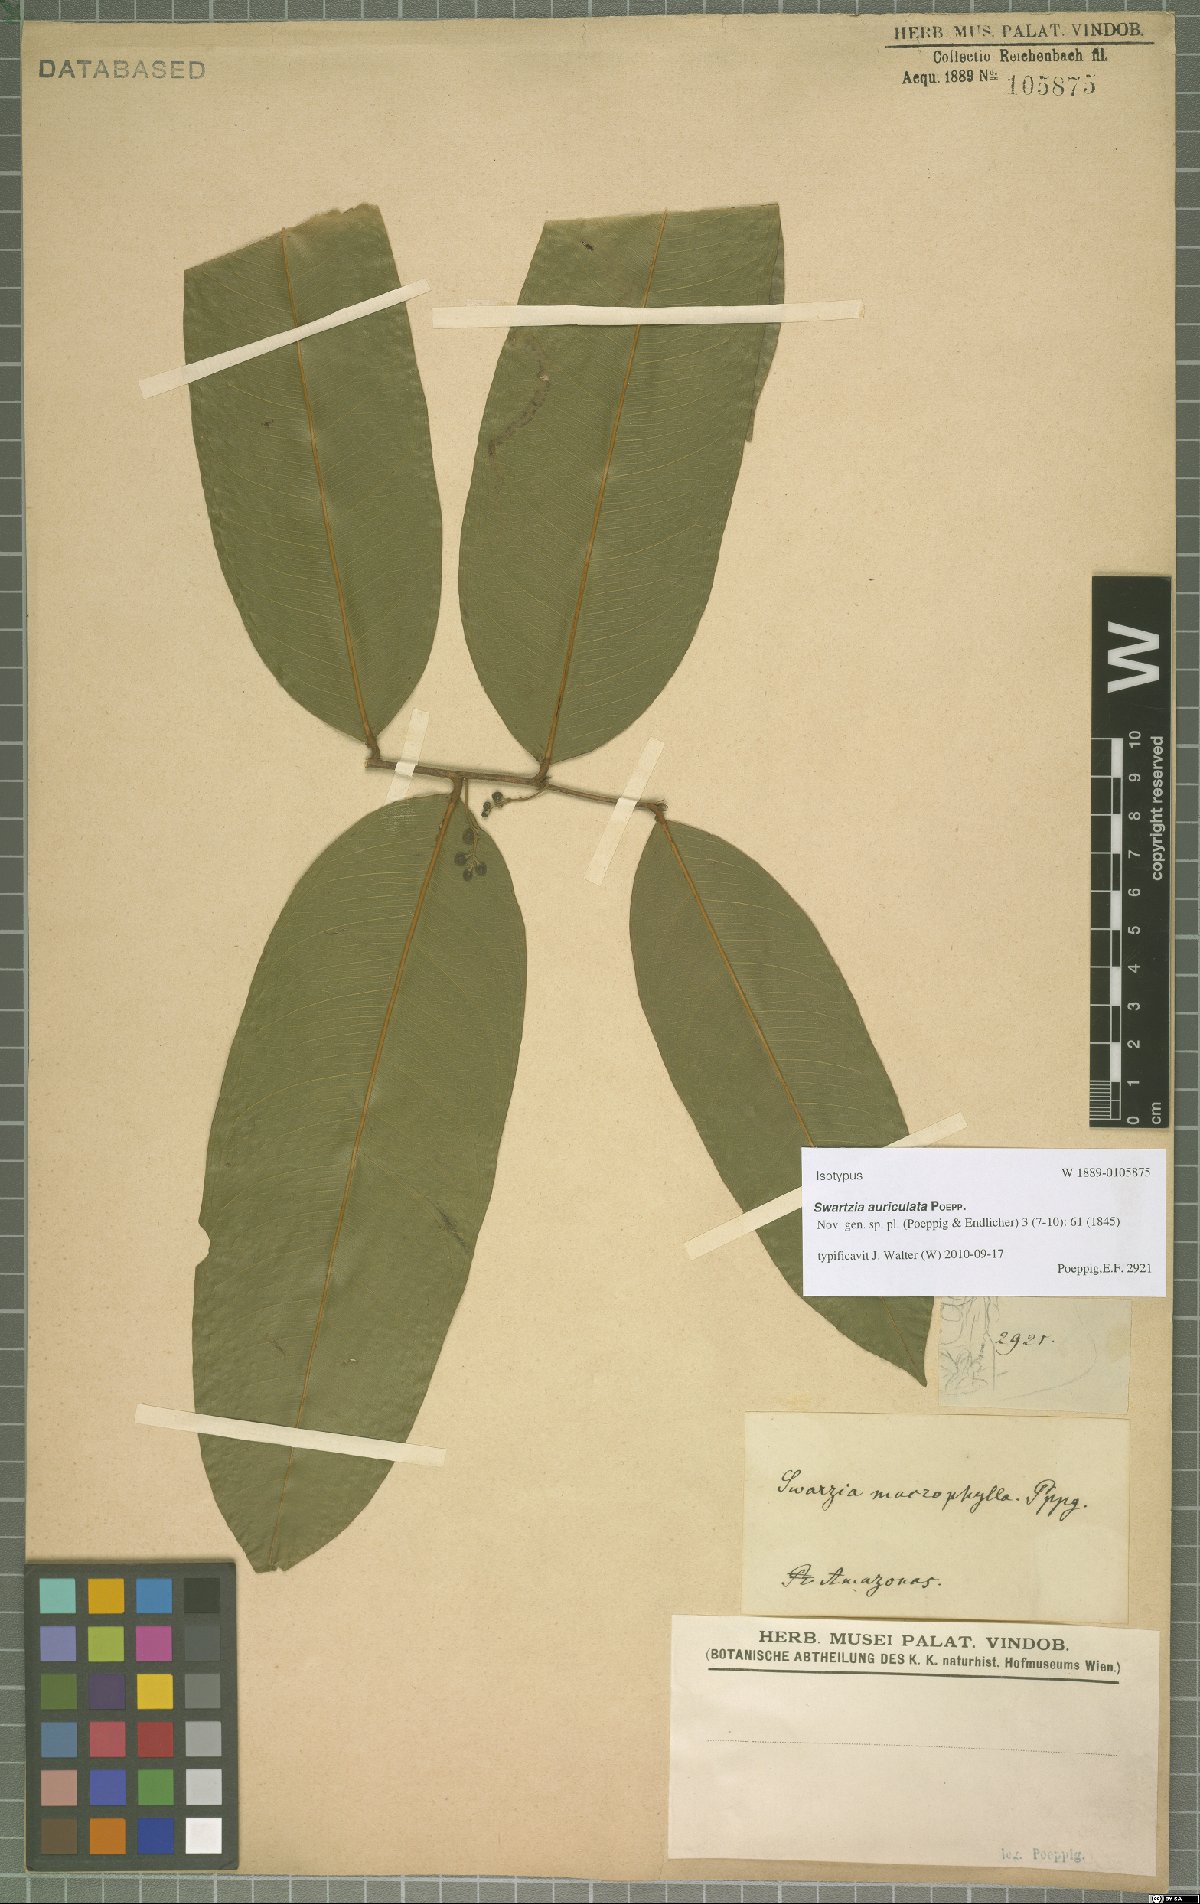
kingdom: Plantae
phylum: Tracheophyta
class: Magnoliopsida
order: Fabales
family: Fabaceae
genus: Swartzia
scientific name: Swartzia auriculata
